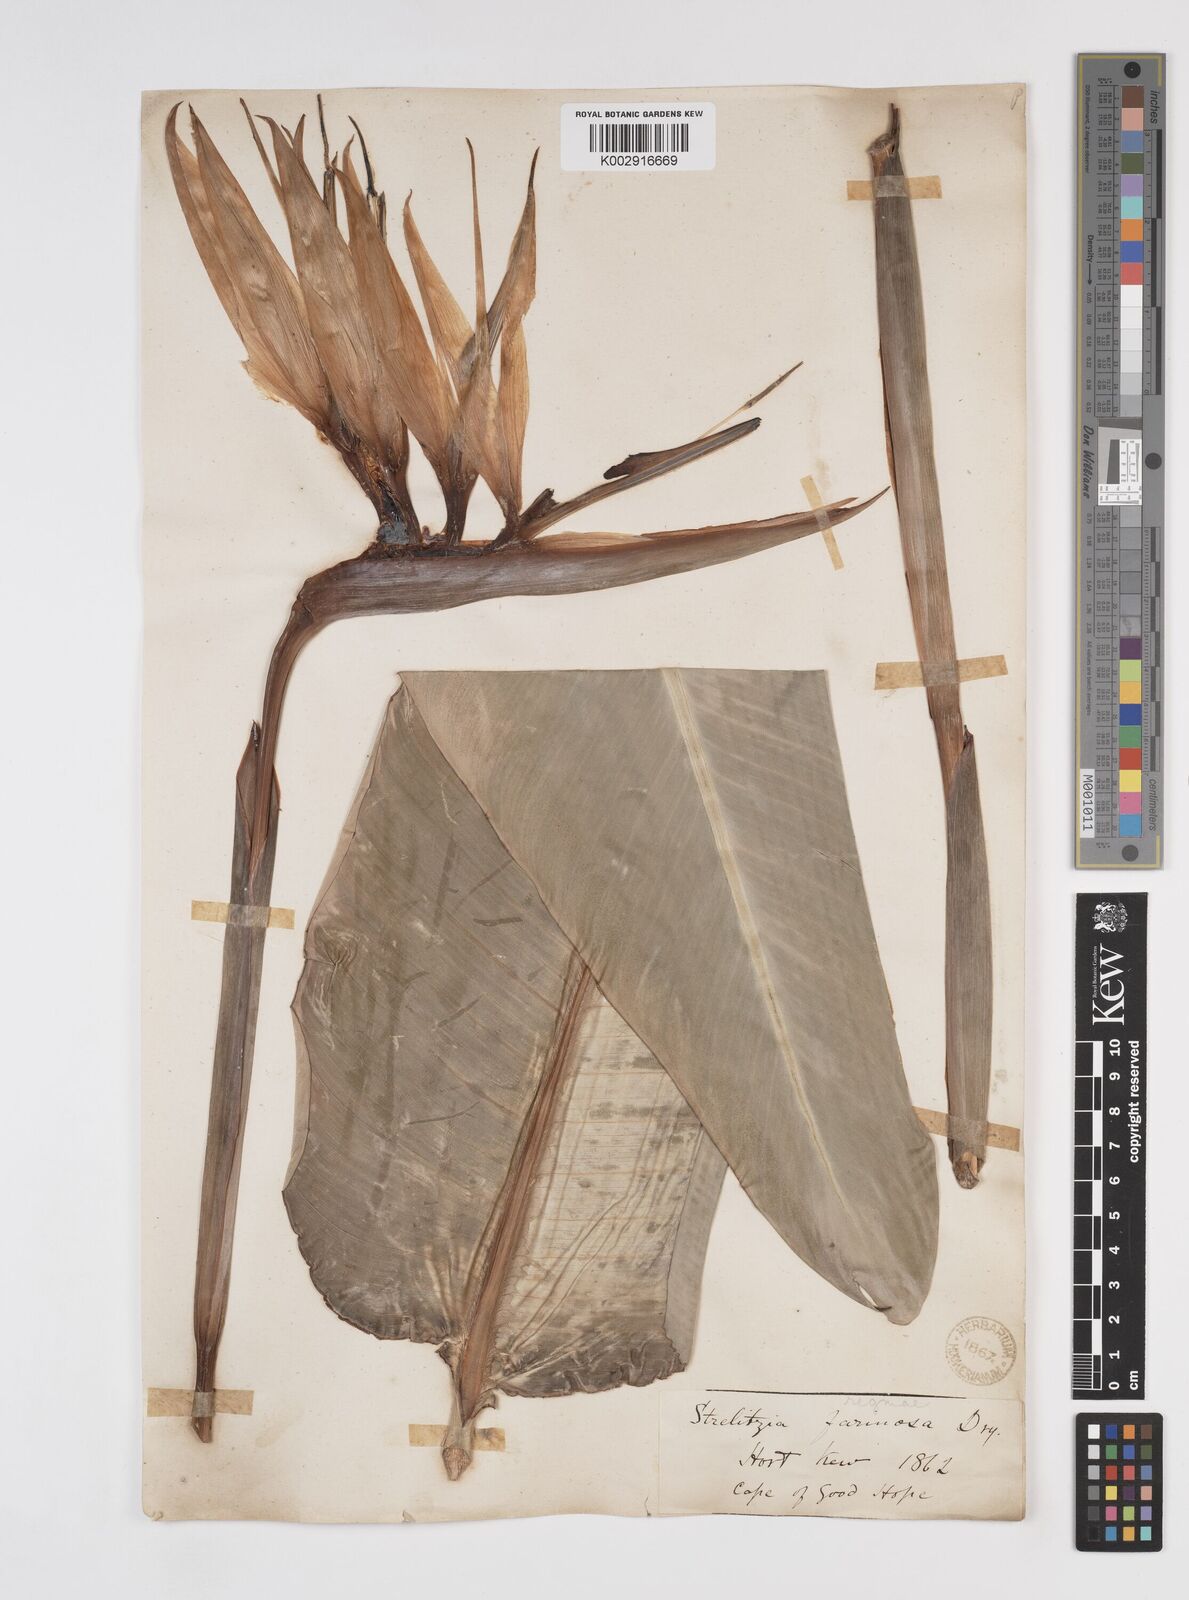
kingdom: Plantae
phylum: Tracheophyta
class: Liliopsida
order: Zingiberales
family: Strelitziaceae
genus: Strelitzia
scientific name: Strelitzia reginae
